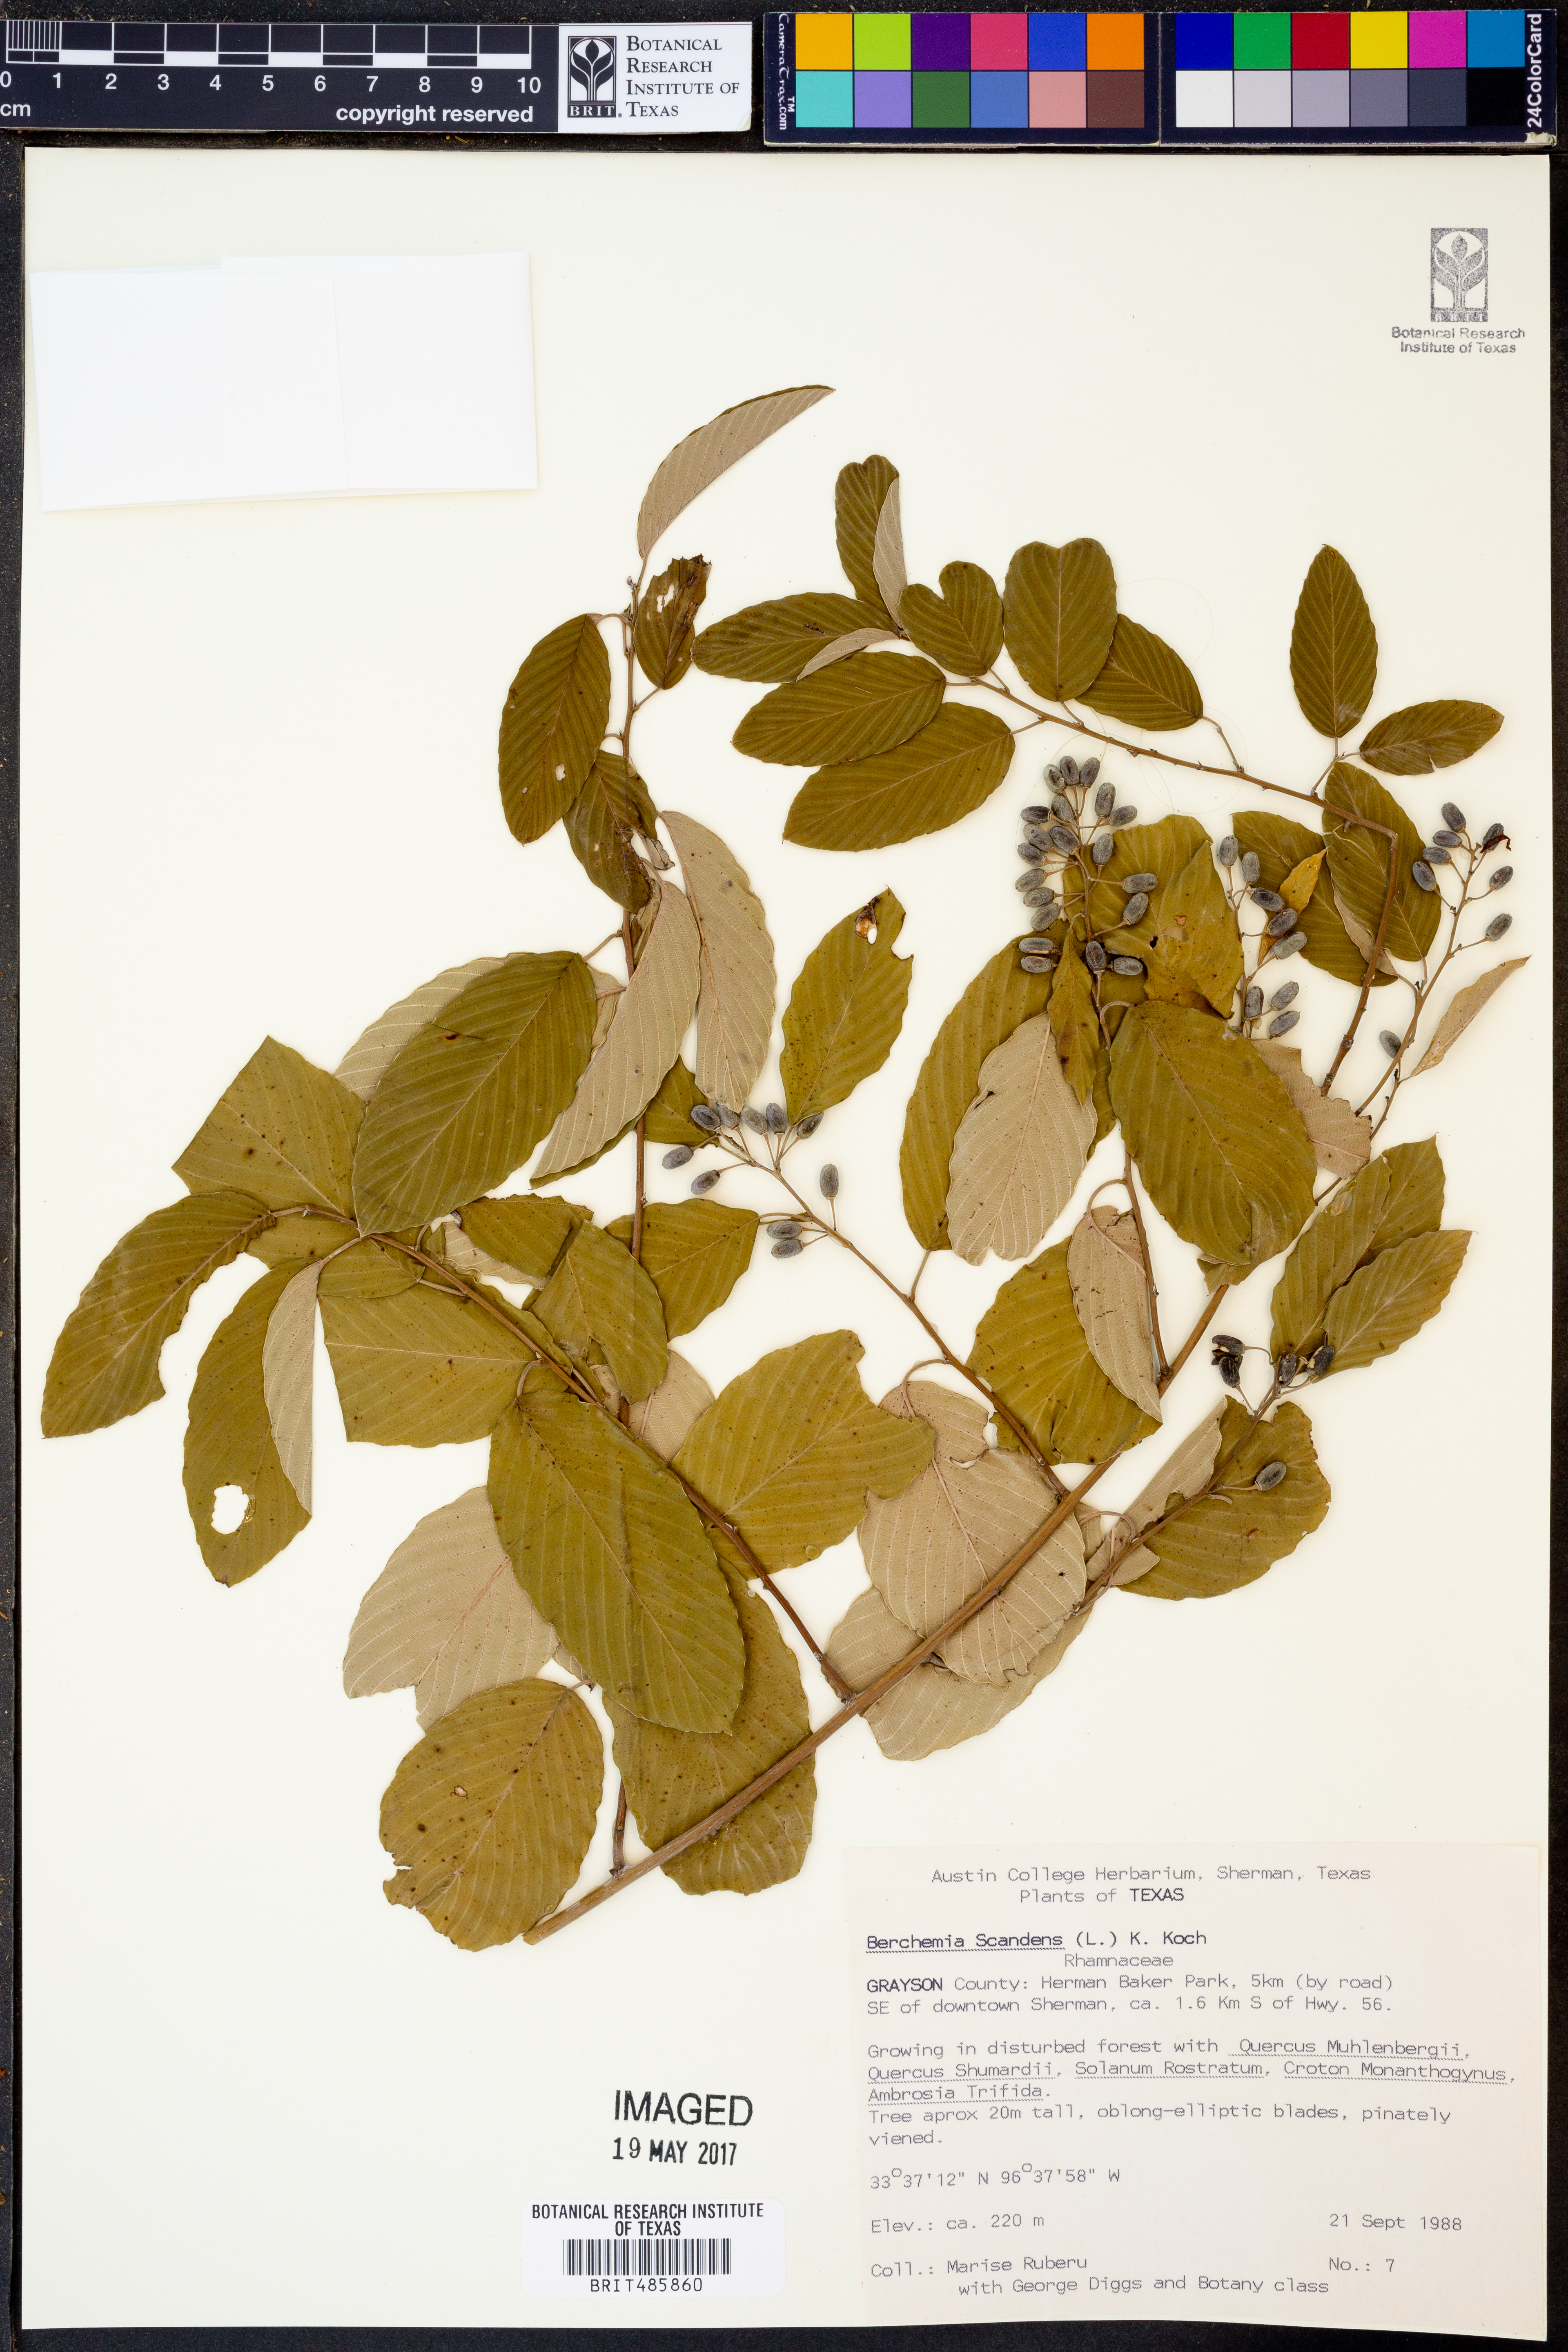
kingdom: Plantae
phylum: Tracheophyta
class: Magnoliopsida
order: Rosales
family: Rhamnaceae
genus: Berchemia
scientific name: Berchemia scandens
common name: Supplejack
